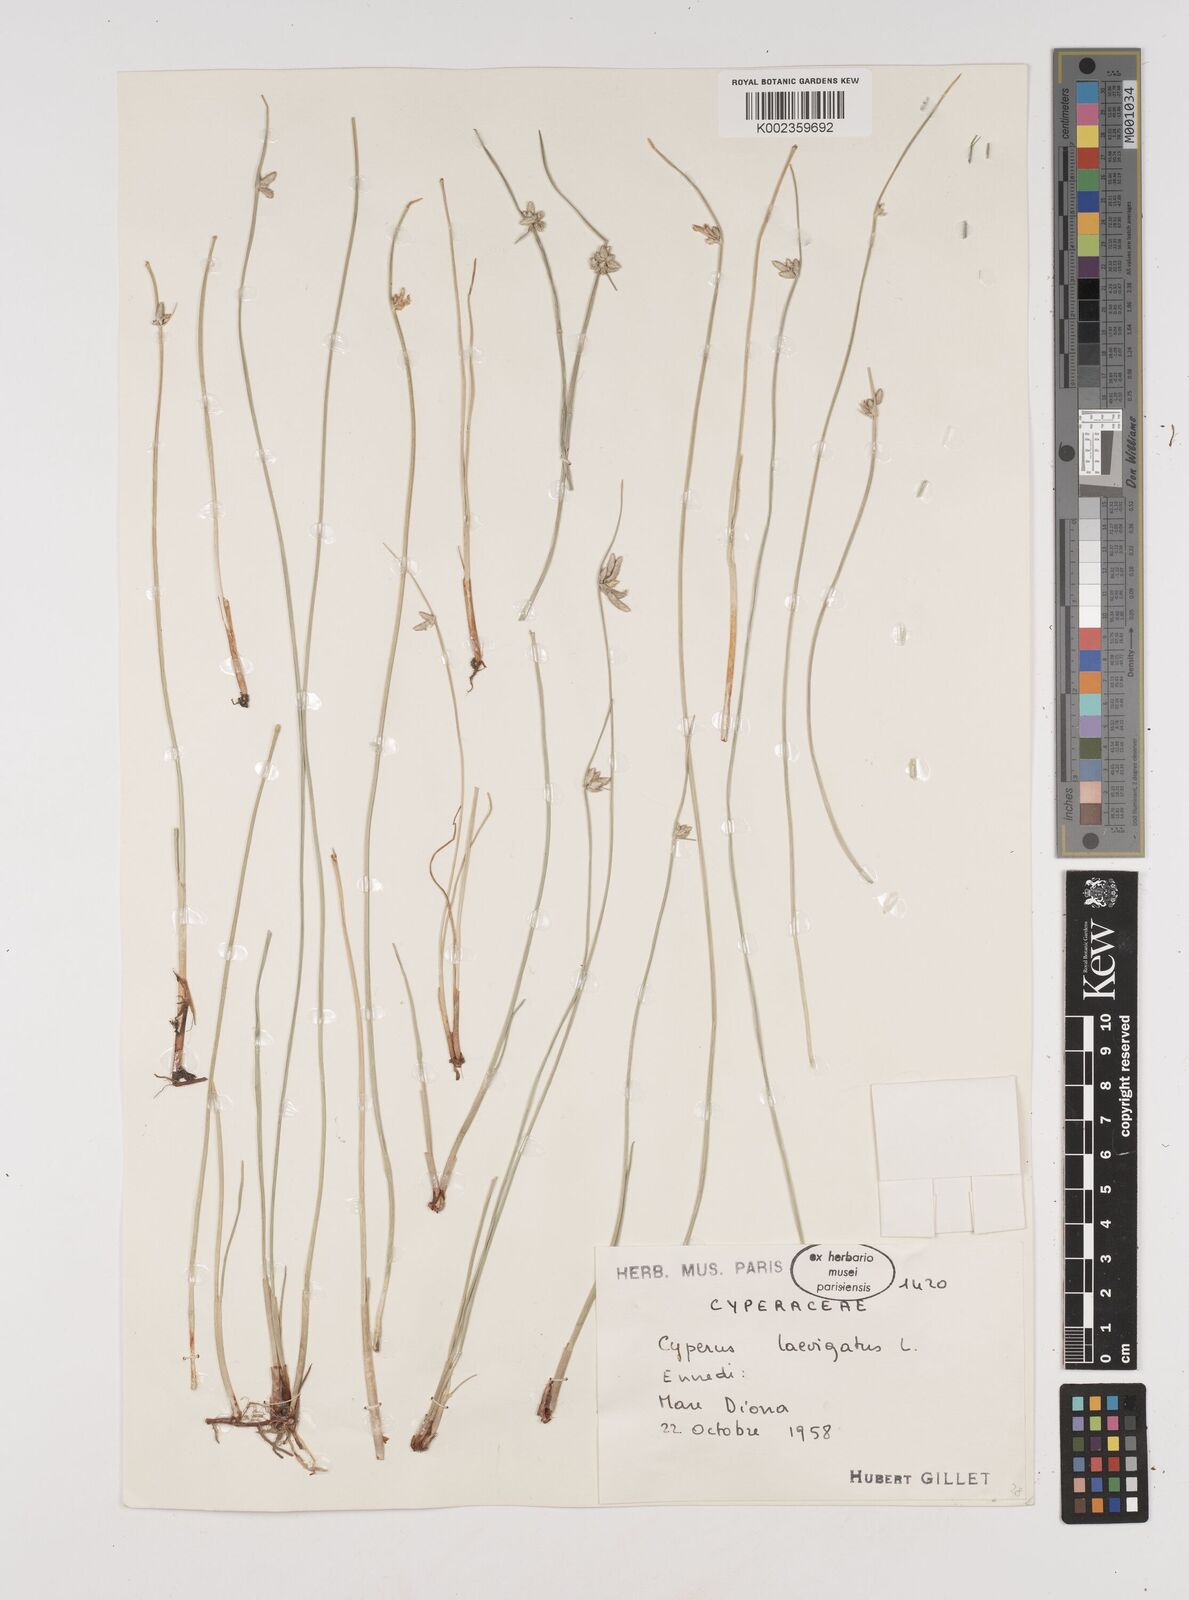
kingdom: Plantae
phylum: Tracheophyta
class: Liliopsida
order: Poales
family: Cyperaceae
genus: Cyperus
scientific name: Cyperus laevigatus
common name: Smooth flat sedge
